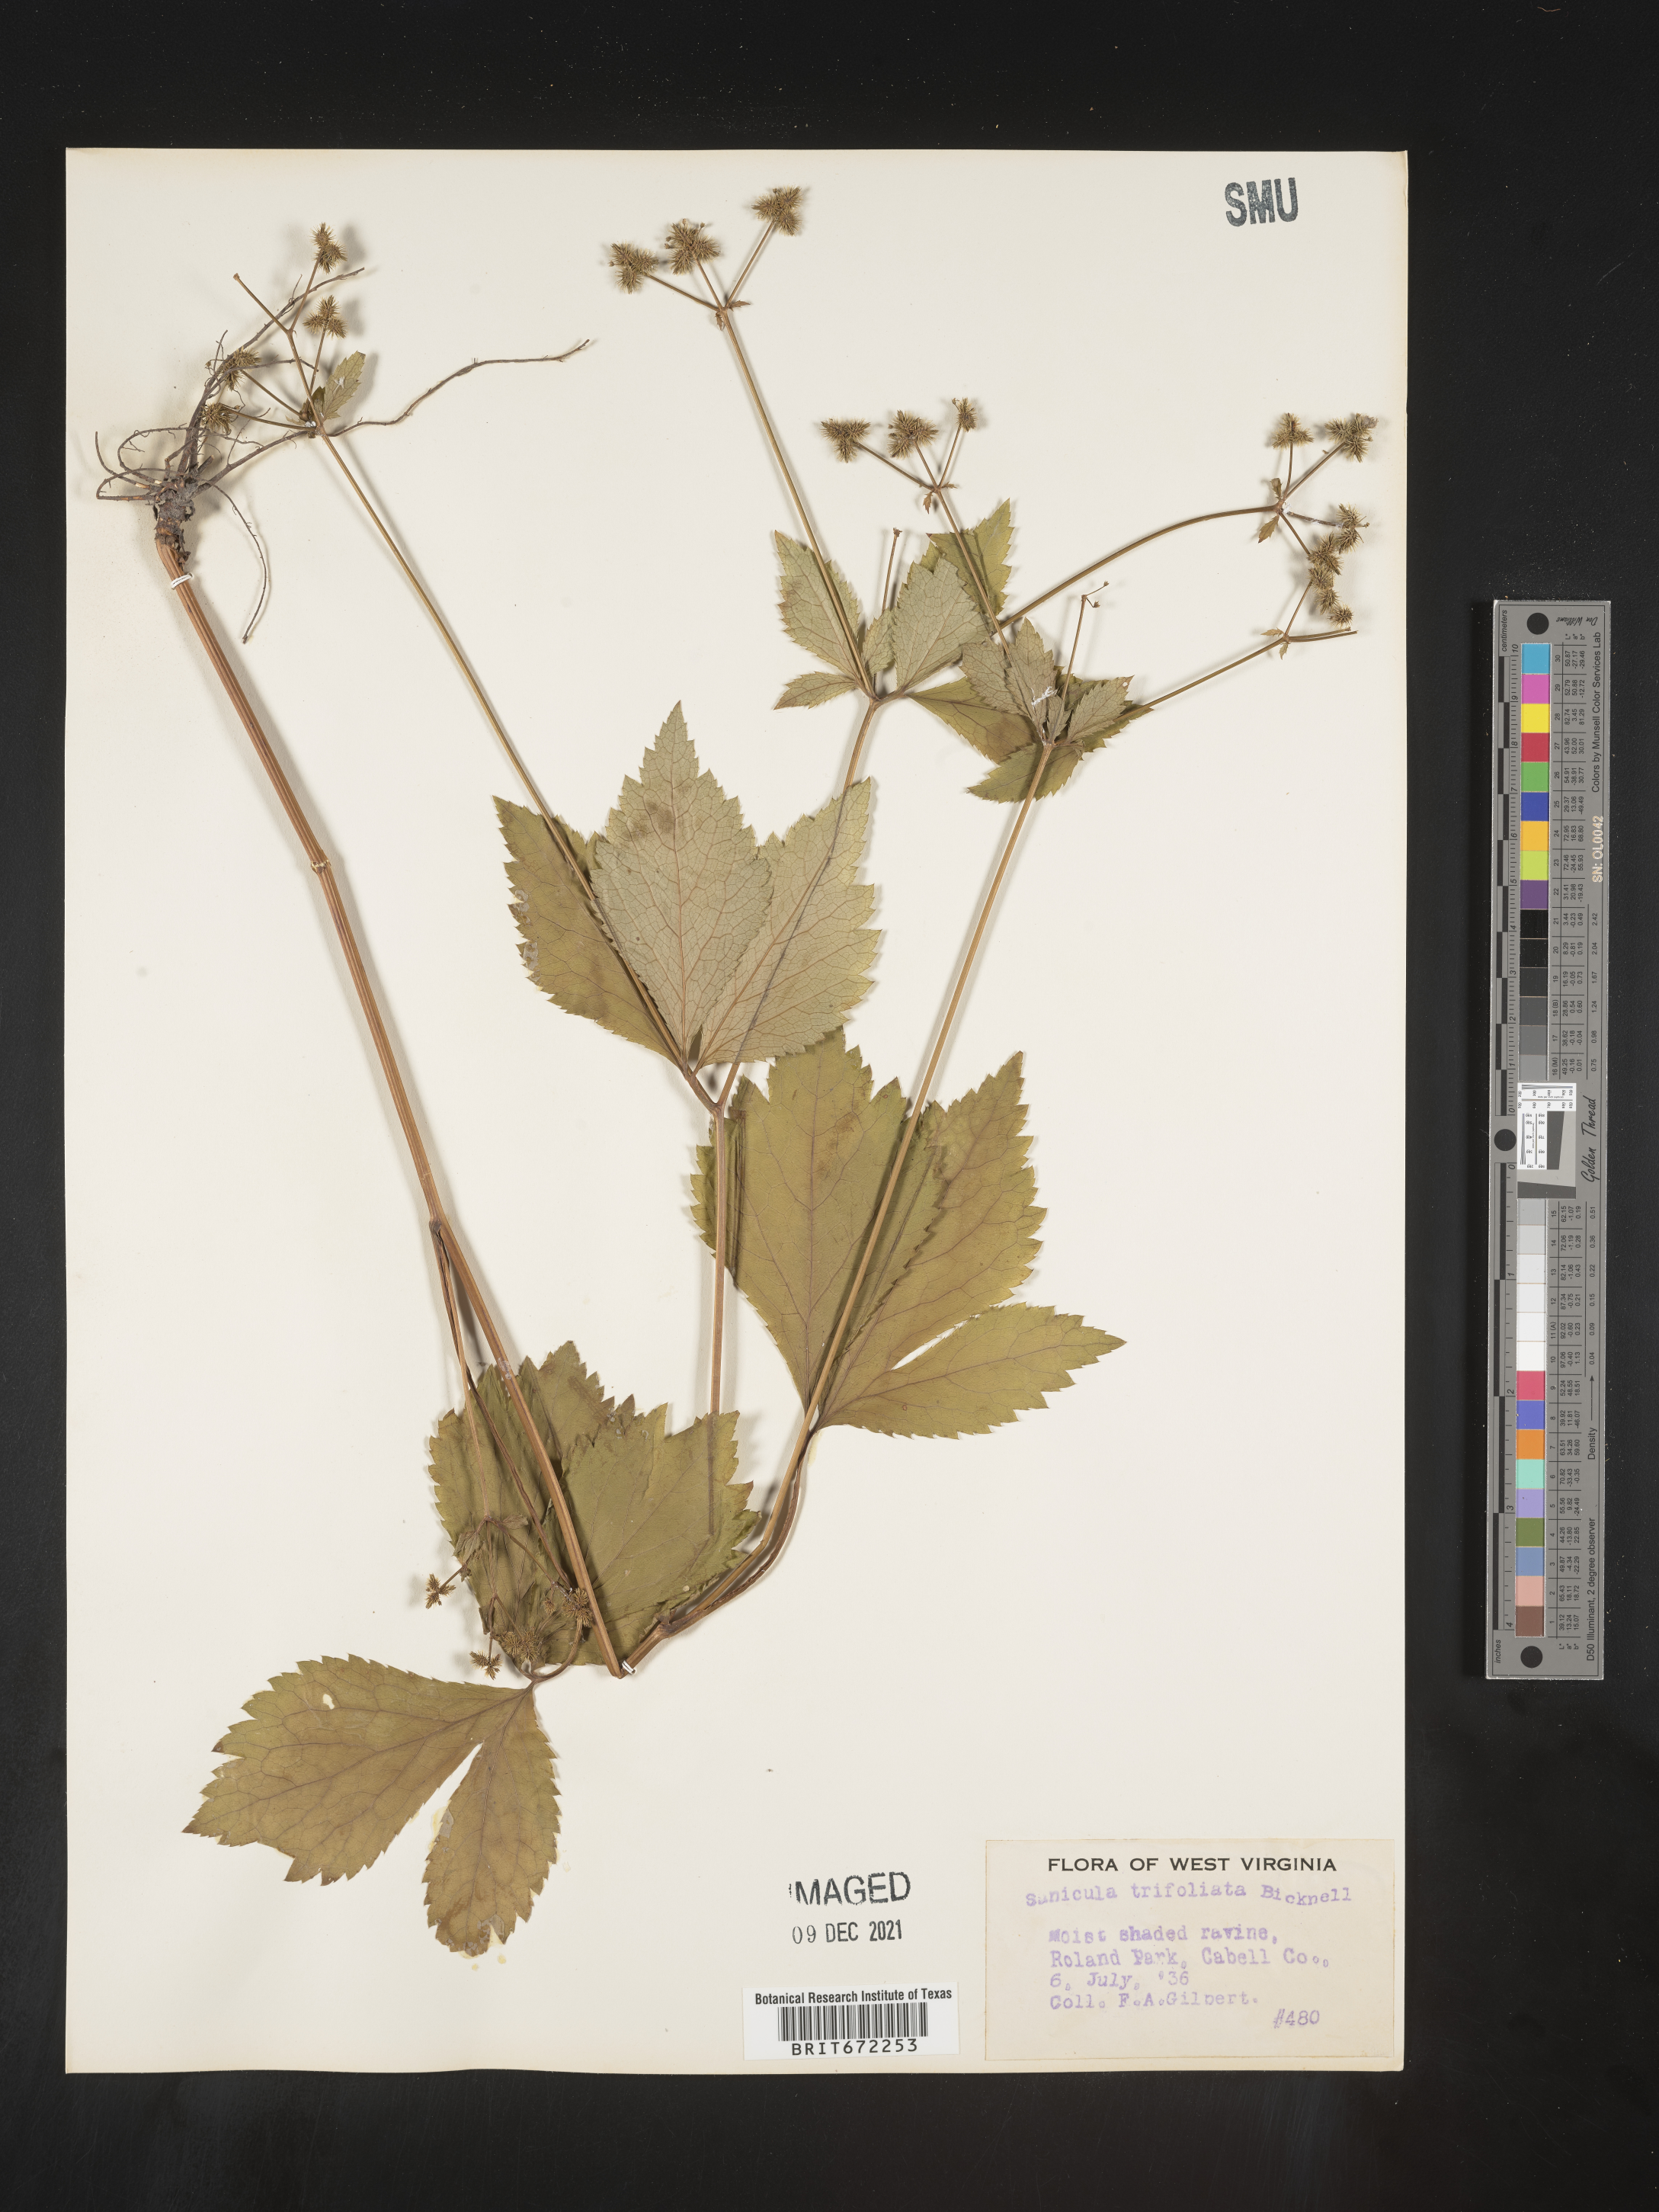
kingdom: Plantae
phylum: Tracheophyta
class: Magnoliopsida
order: Apiales
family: Apiaceae
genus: Sanicula
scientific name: Sanicula
